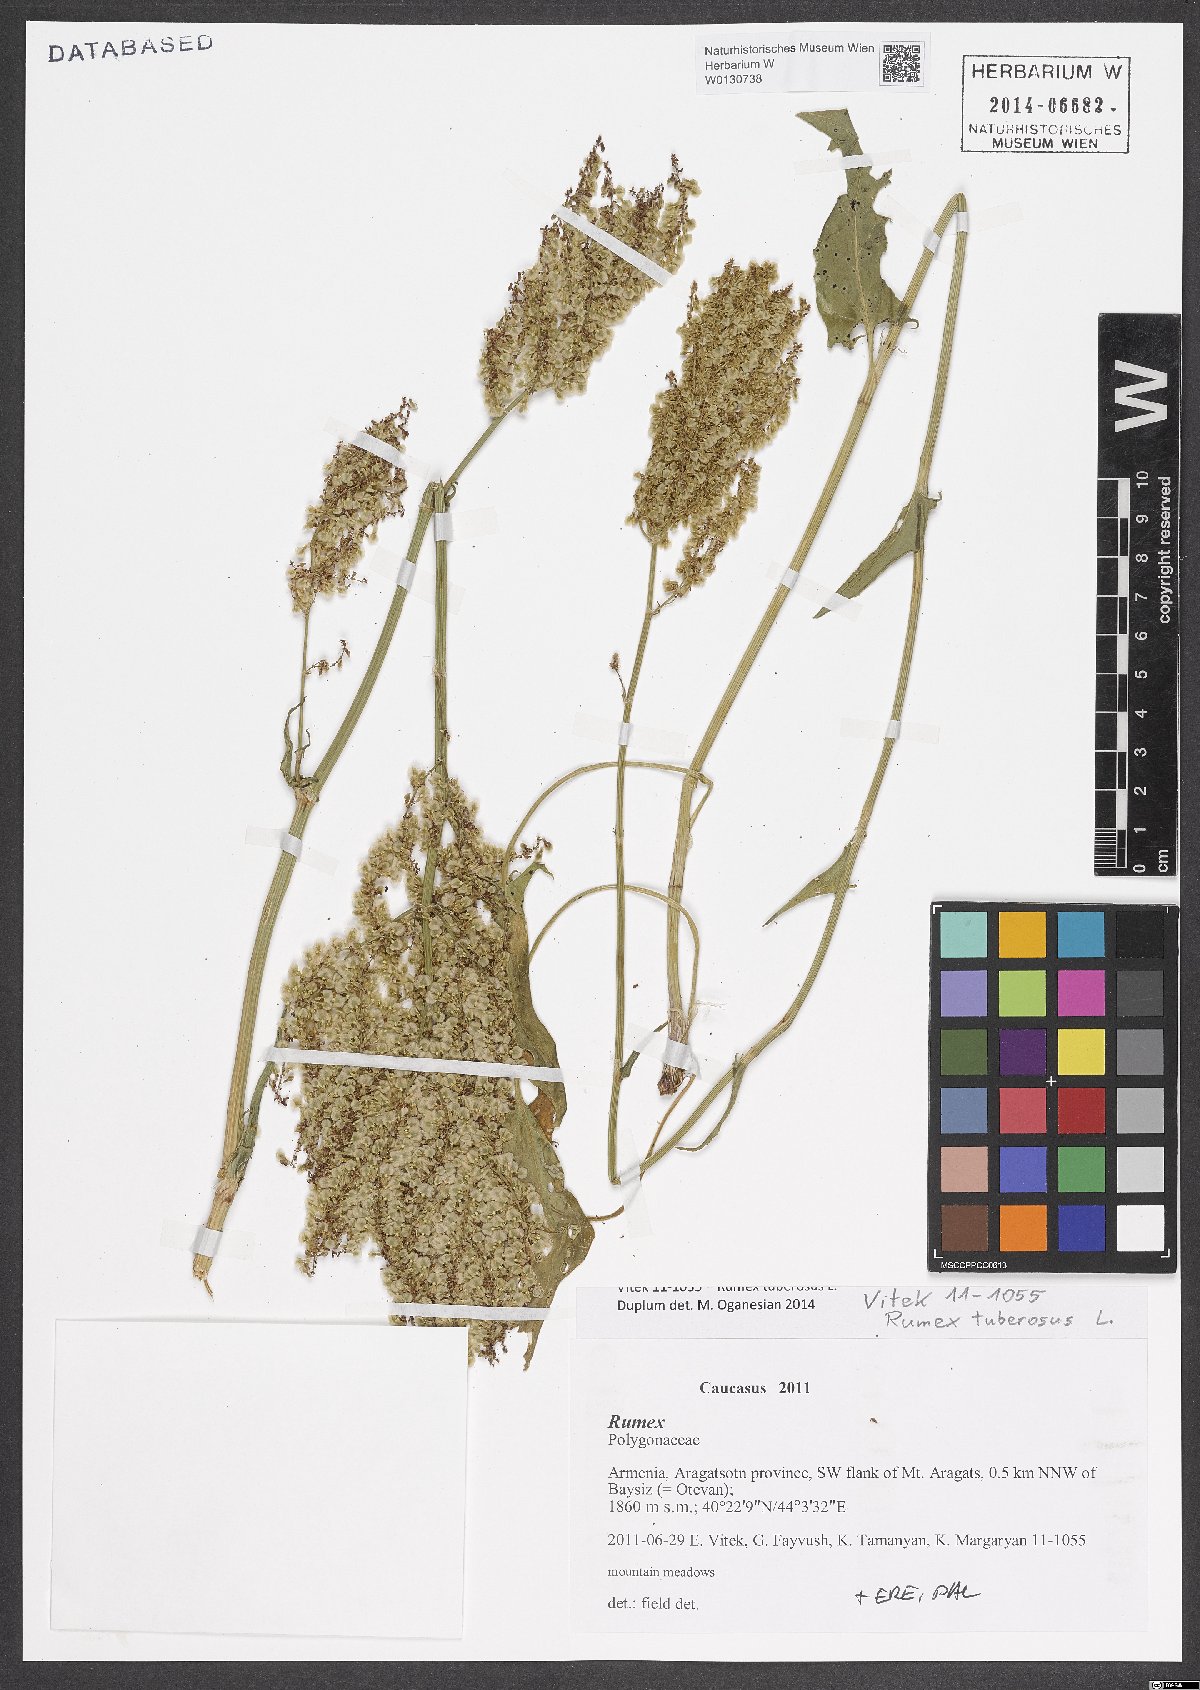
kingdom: Plantae
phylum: Tracheophyta
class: Magnoliopsida
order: Caryophyllales
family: Polygonaceae
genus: Rumex
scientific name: Rumex tuberosus
